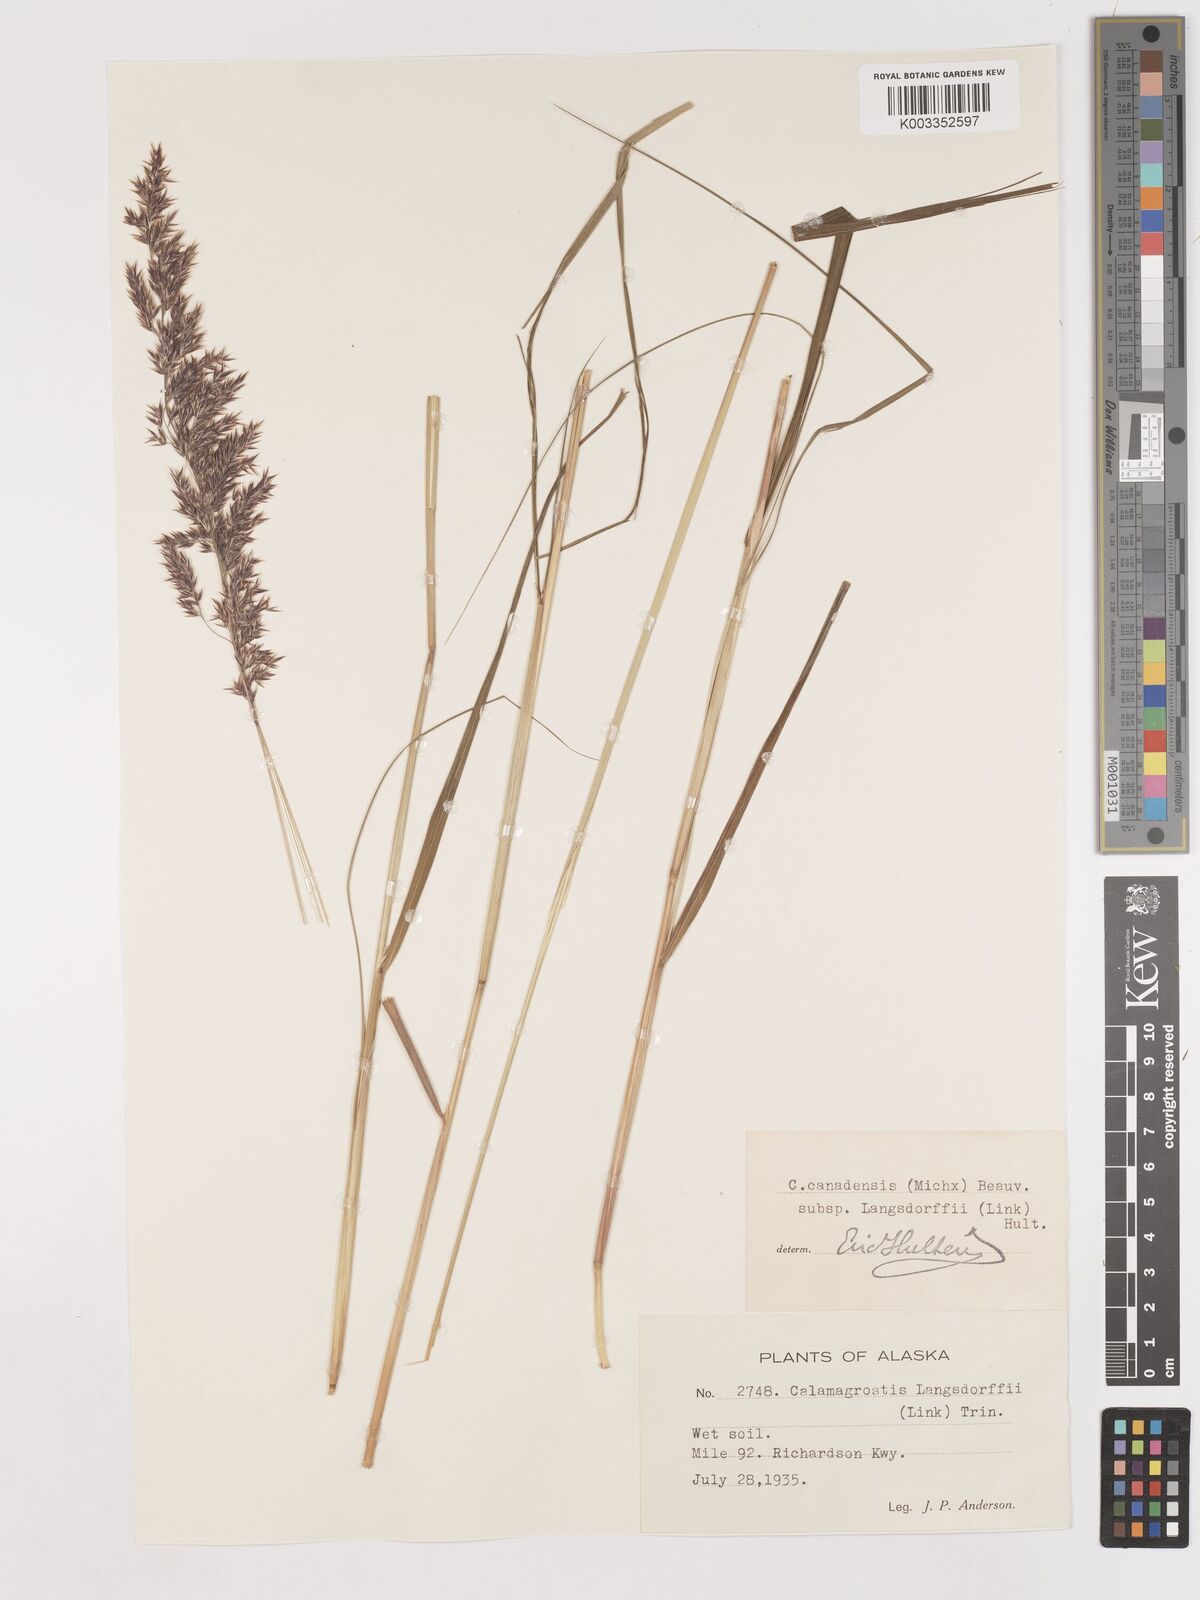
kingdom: Plantae
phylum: Tracheophyta
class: Liliopsida
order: Poales
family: Poaceae
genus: Calamagrostis
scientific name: Calamagrostis canadensis
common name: Canada bluejoint
